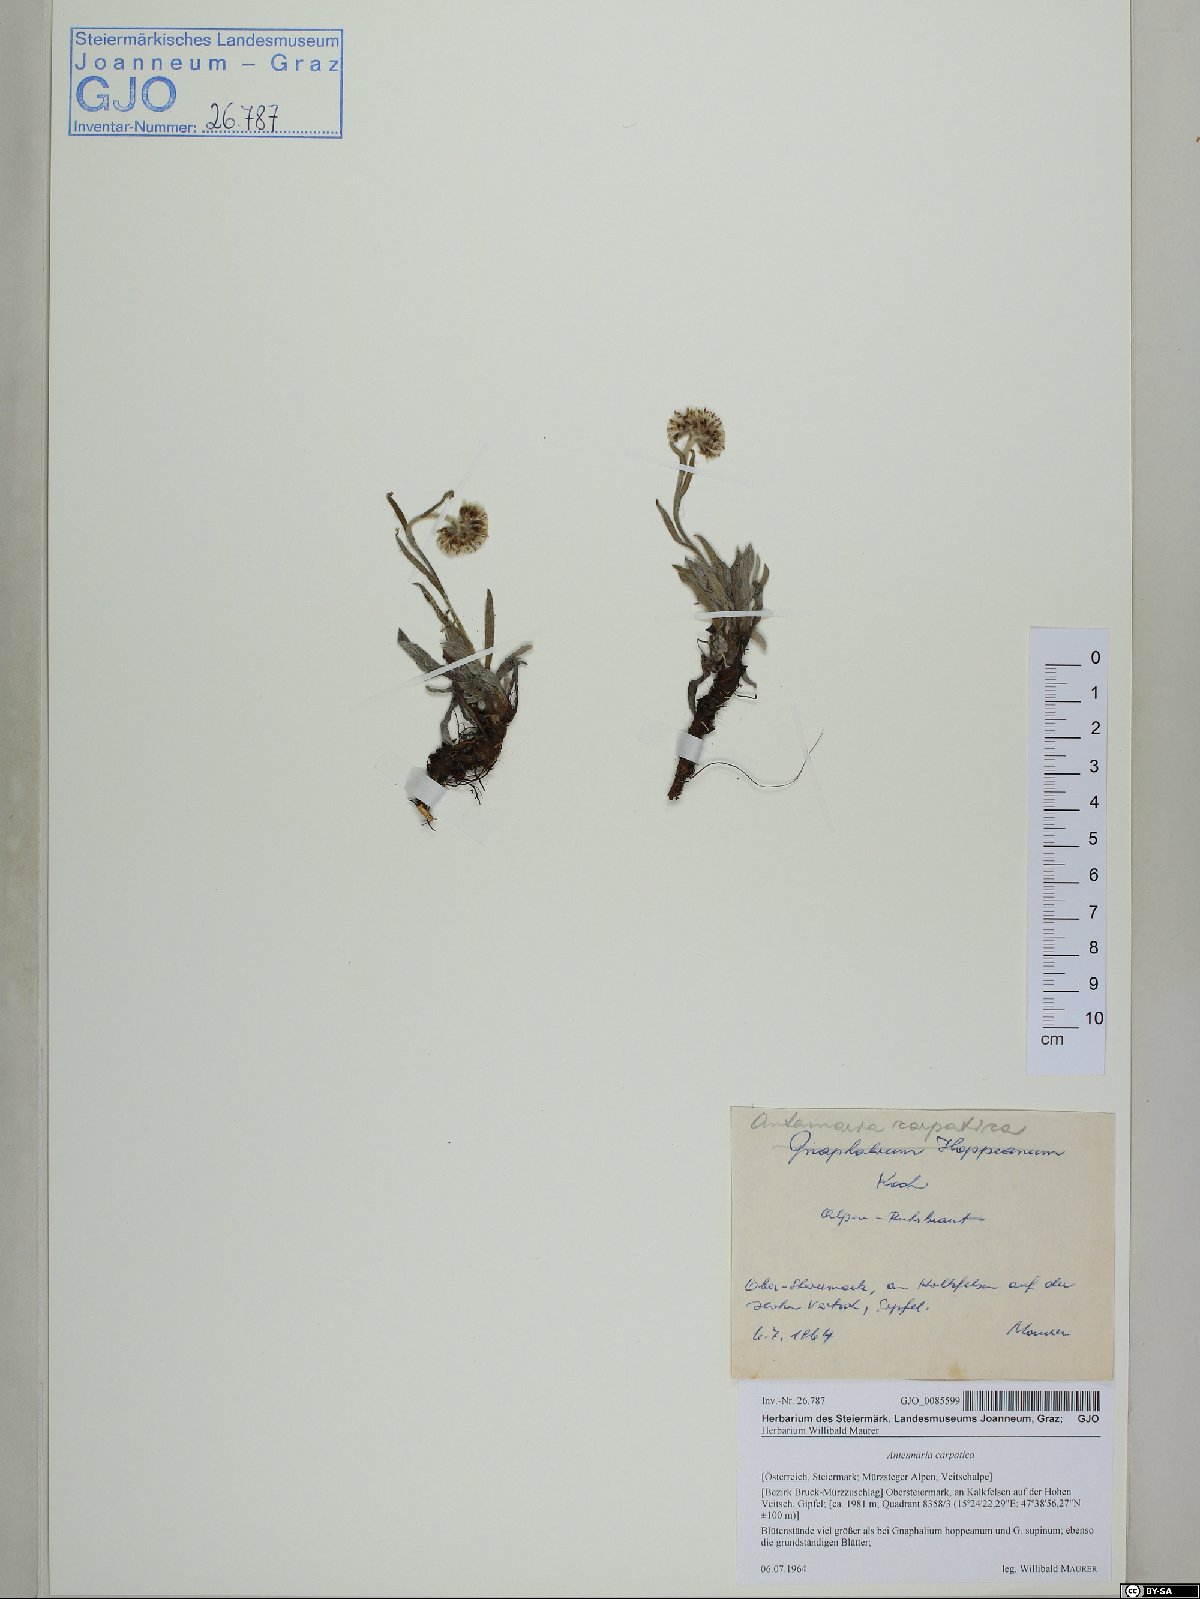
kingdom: Plantae
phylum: Tracheophyta
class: Magnoliopsida
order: Asterales
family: Asteraceae
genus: Antennaria
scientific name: Antennaria carpatica
